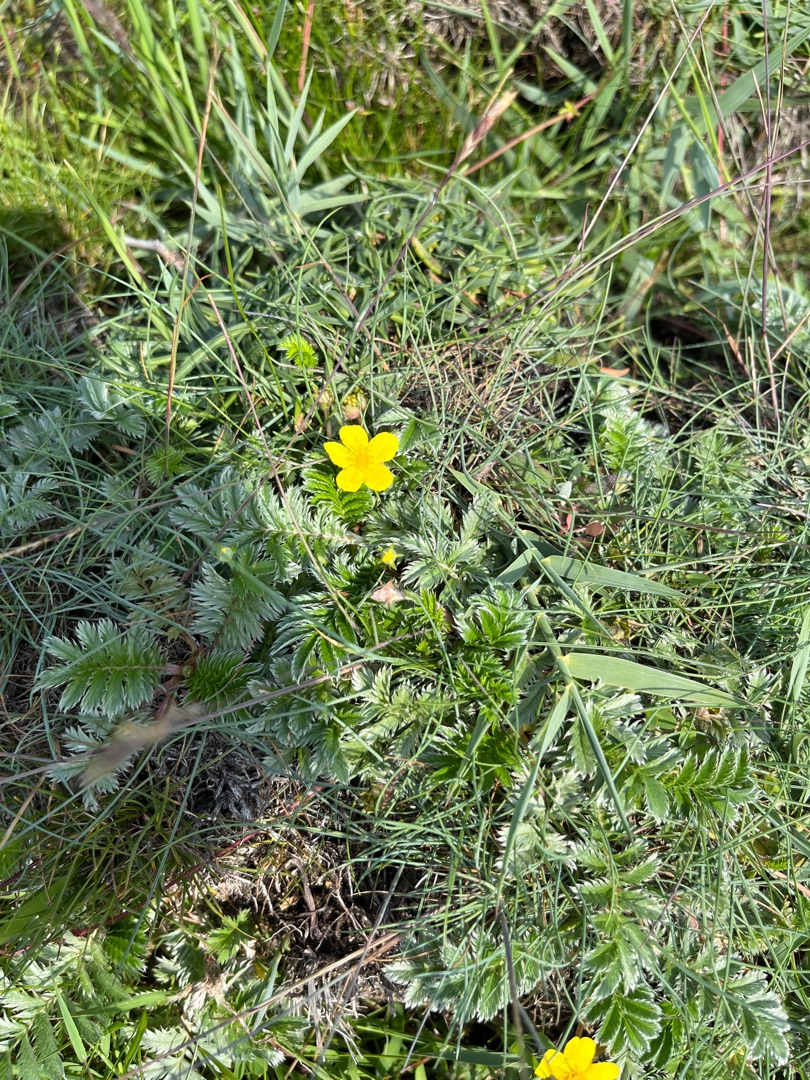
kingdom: Plantae
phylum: Tracheophyta
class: Magnoliopsida
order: Rosales
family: Rosaceae
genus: Argentina
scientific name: Argentina anserina
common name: Gåsepotentil
